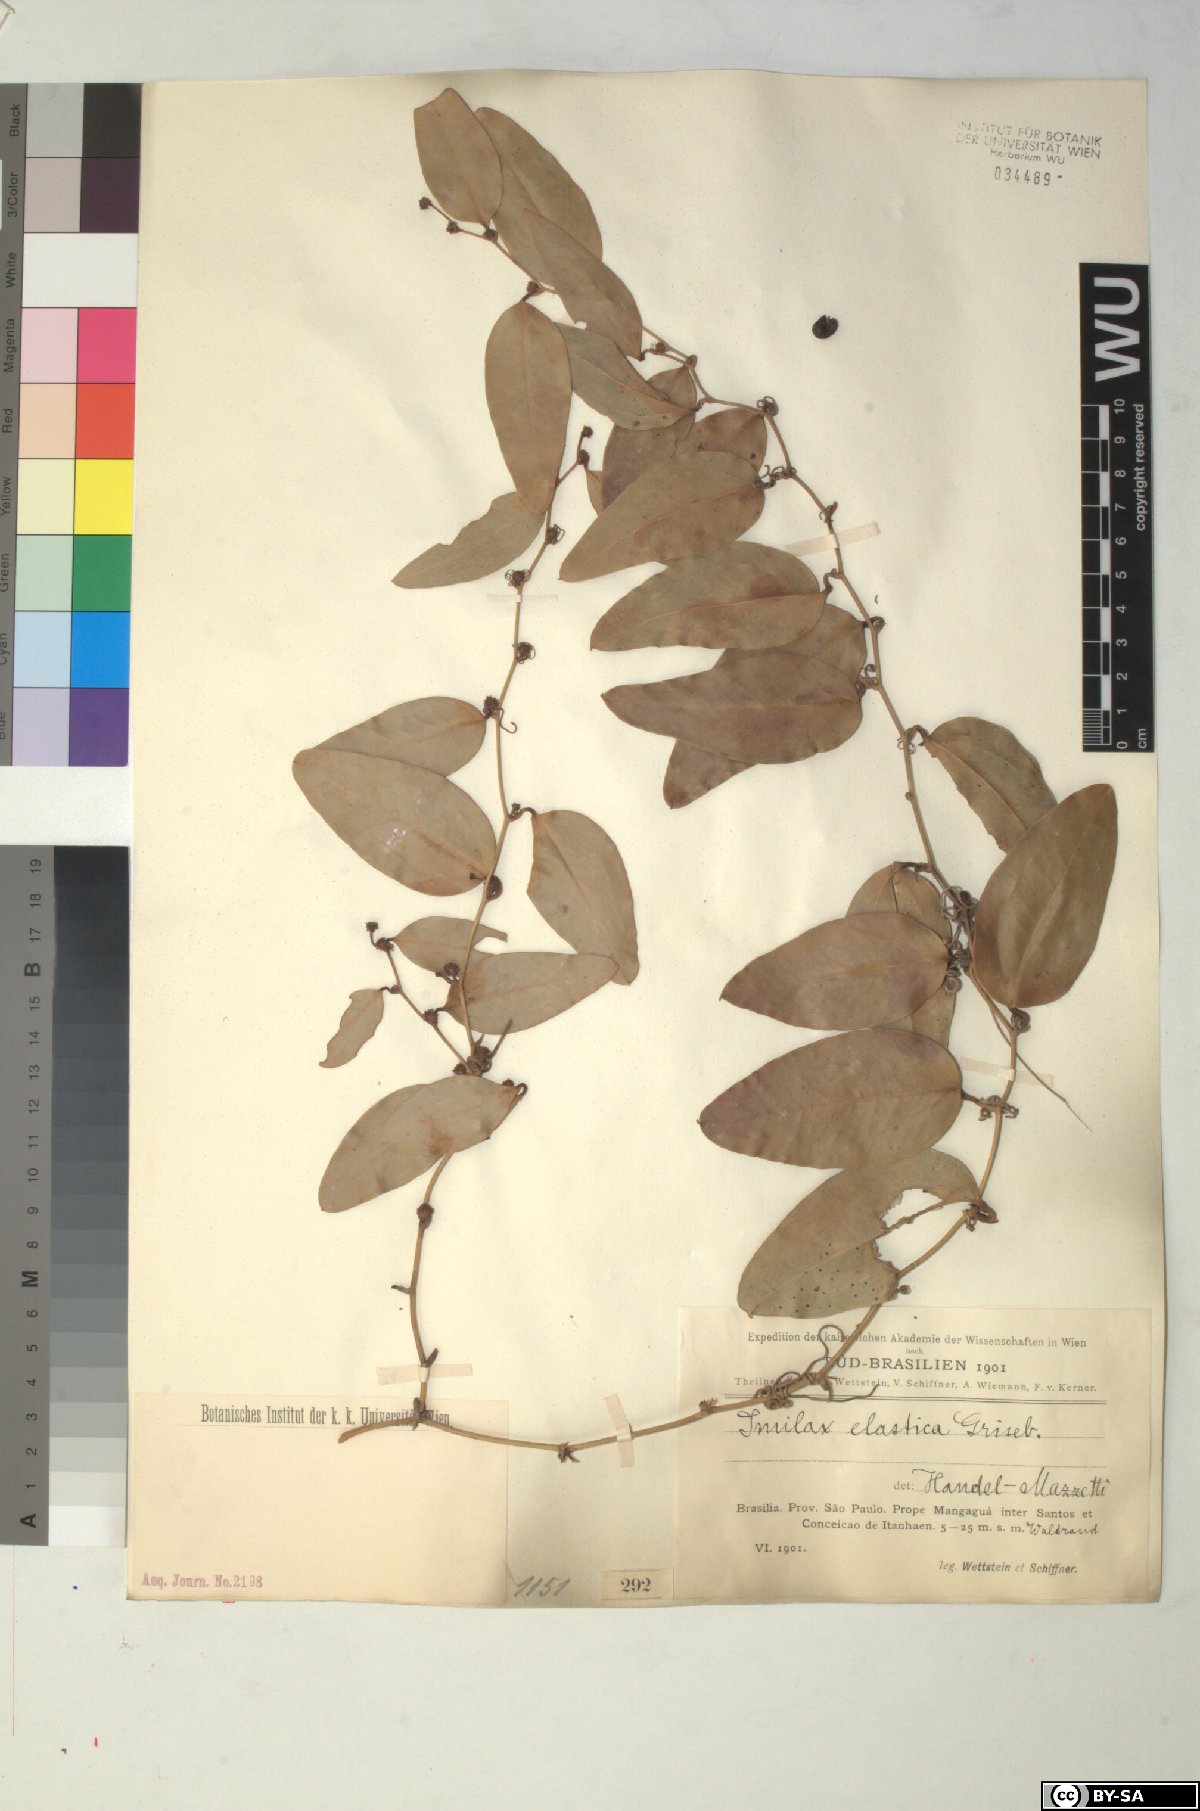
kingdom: Plantae
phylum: Tracheophyta
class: Liliopsida
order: Liliales
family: Smilacaceae
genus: Smilax
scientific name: Smilax elastica
